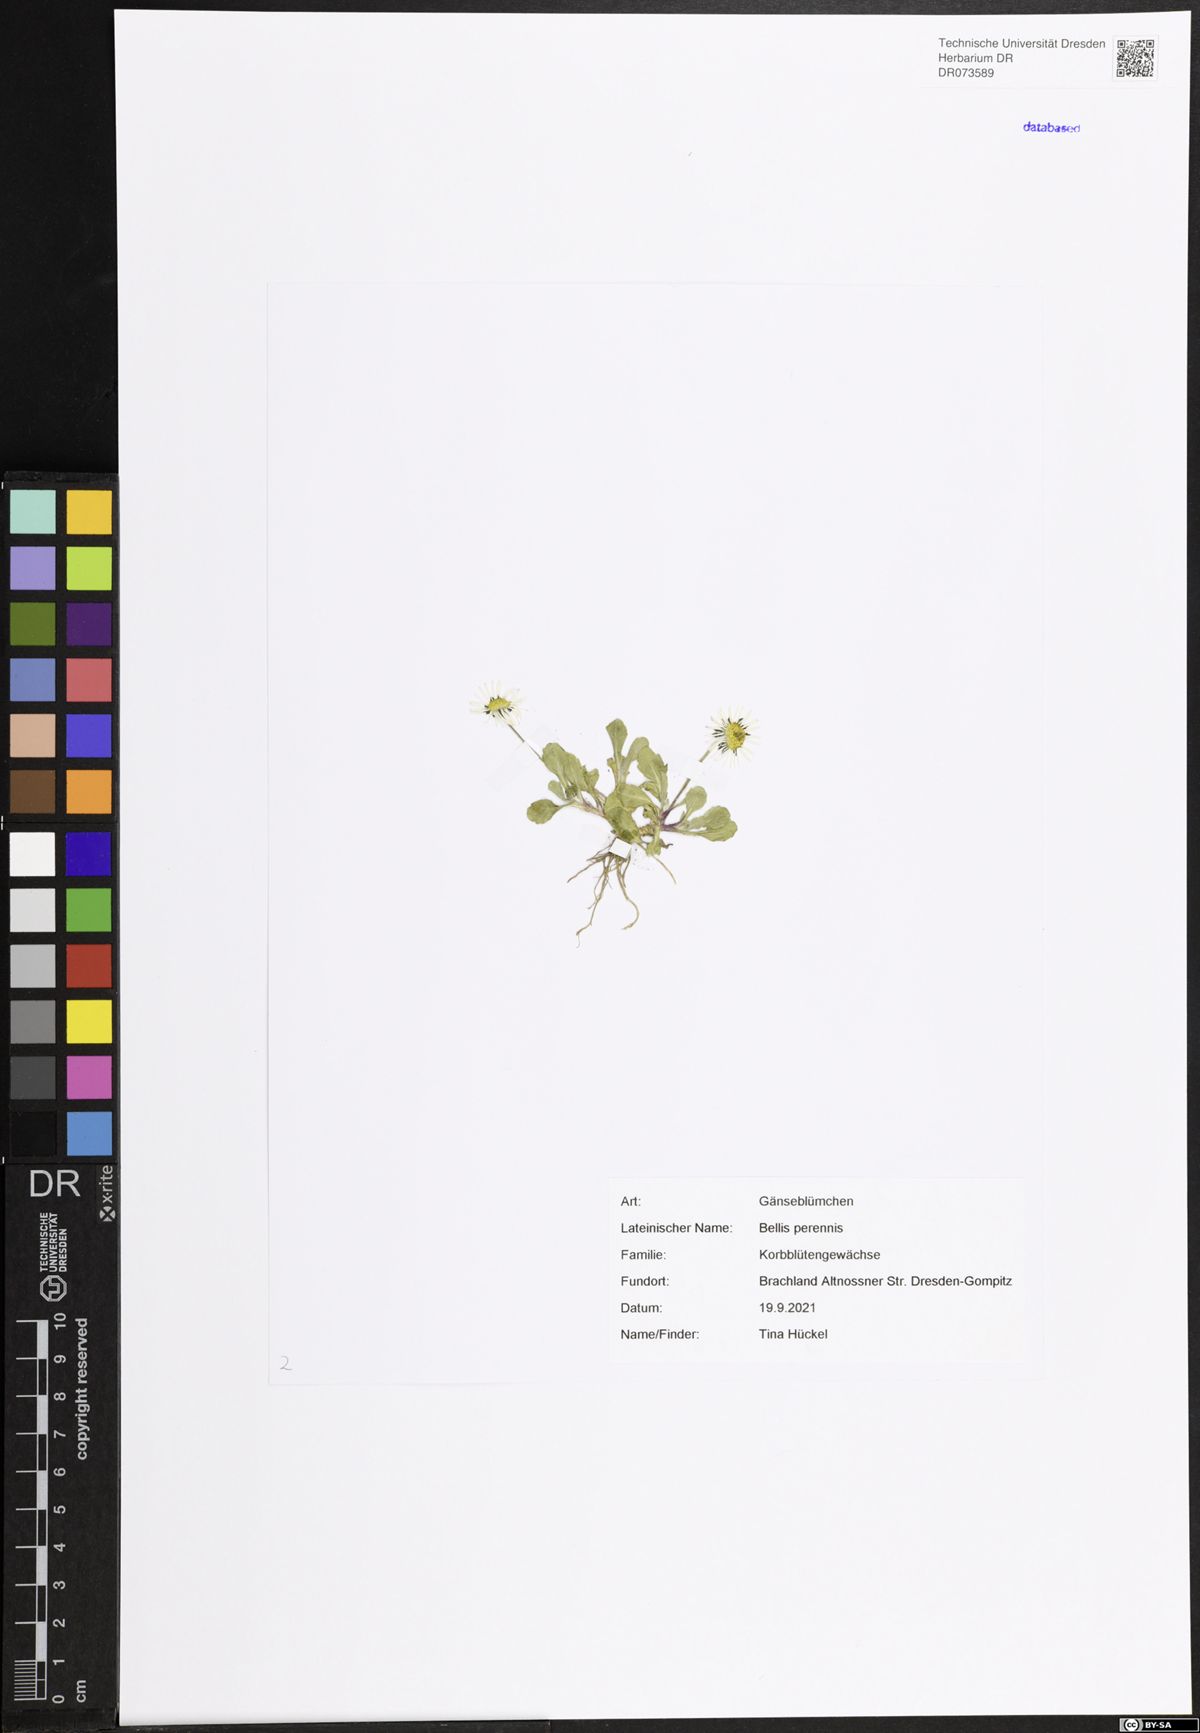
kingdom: Plantae
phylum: Tracheophyta
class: Magnoliopsida
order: Asterales
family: Asteraceae
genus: Bellis
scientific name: Bellis perennis
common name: Lawndaisy
